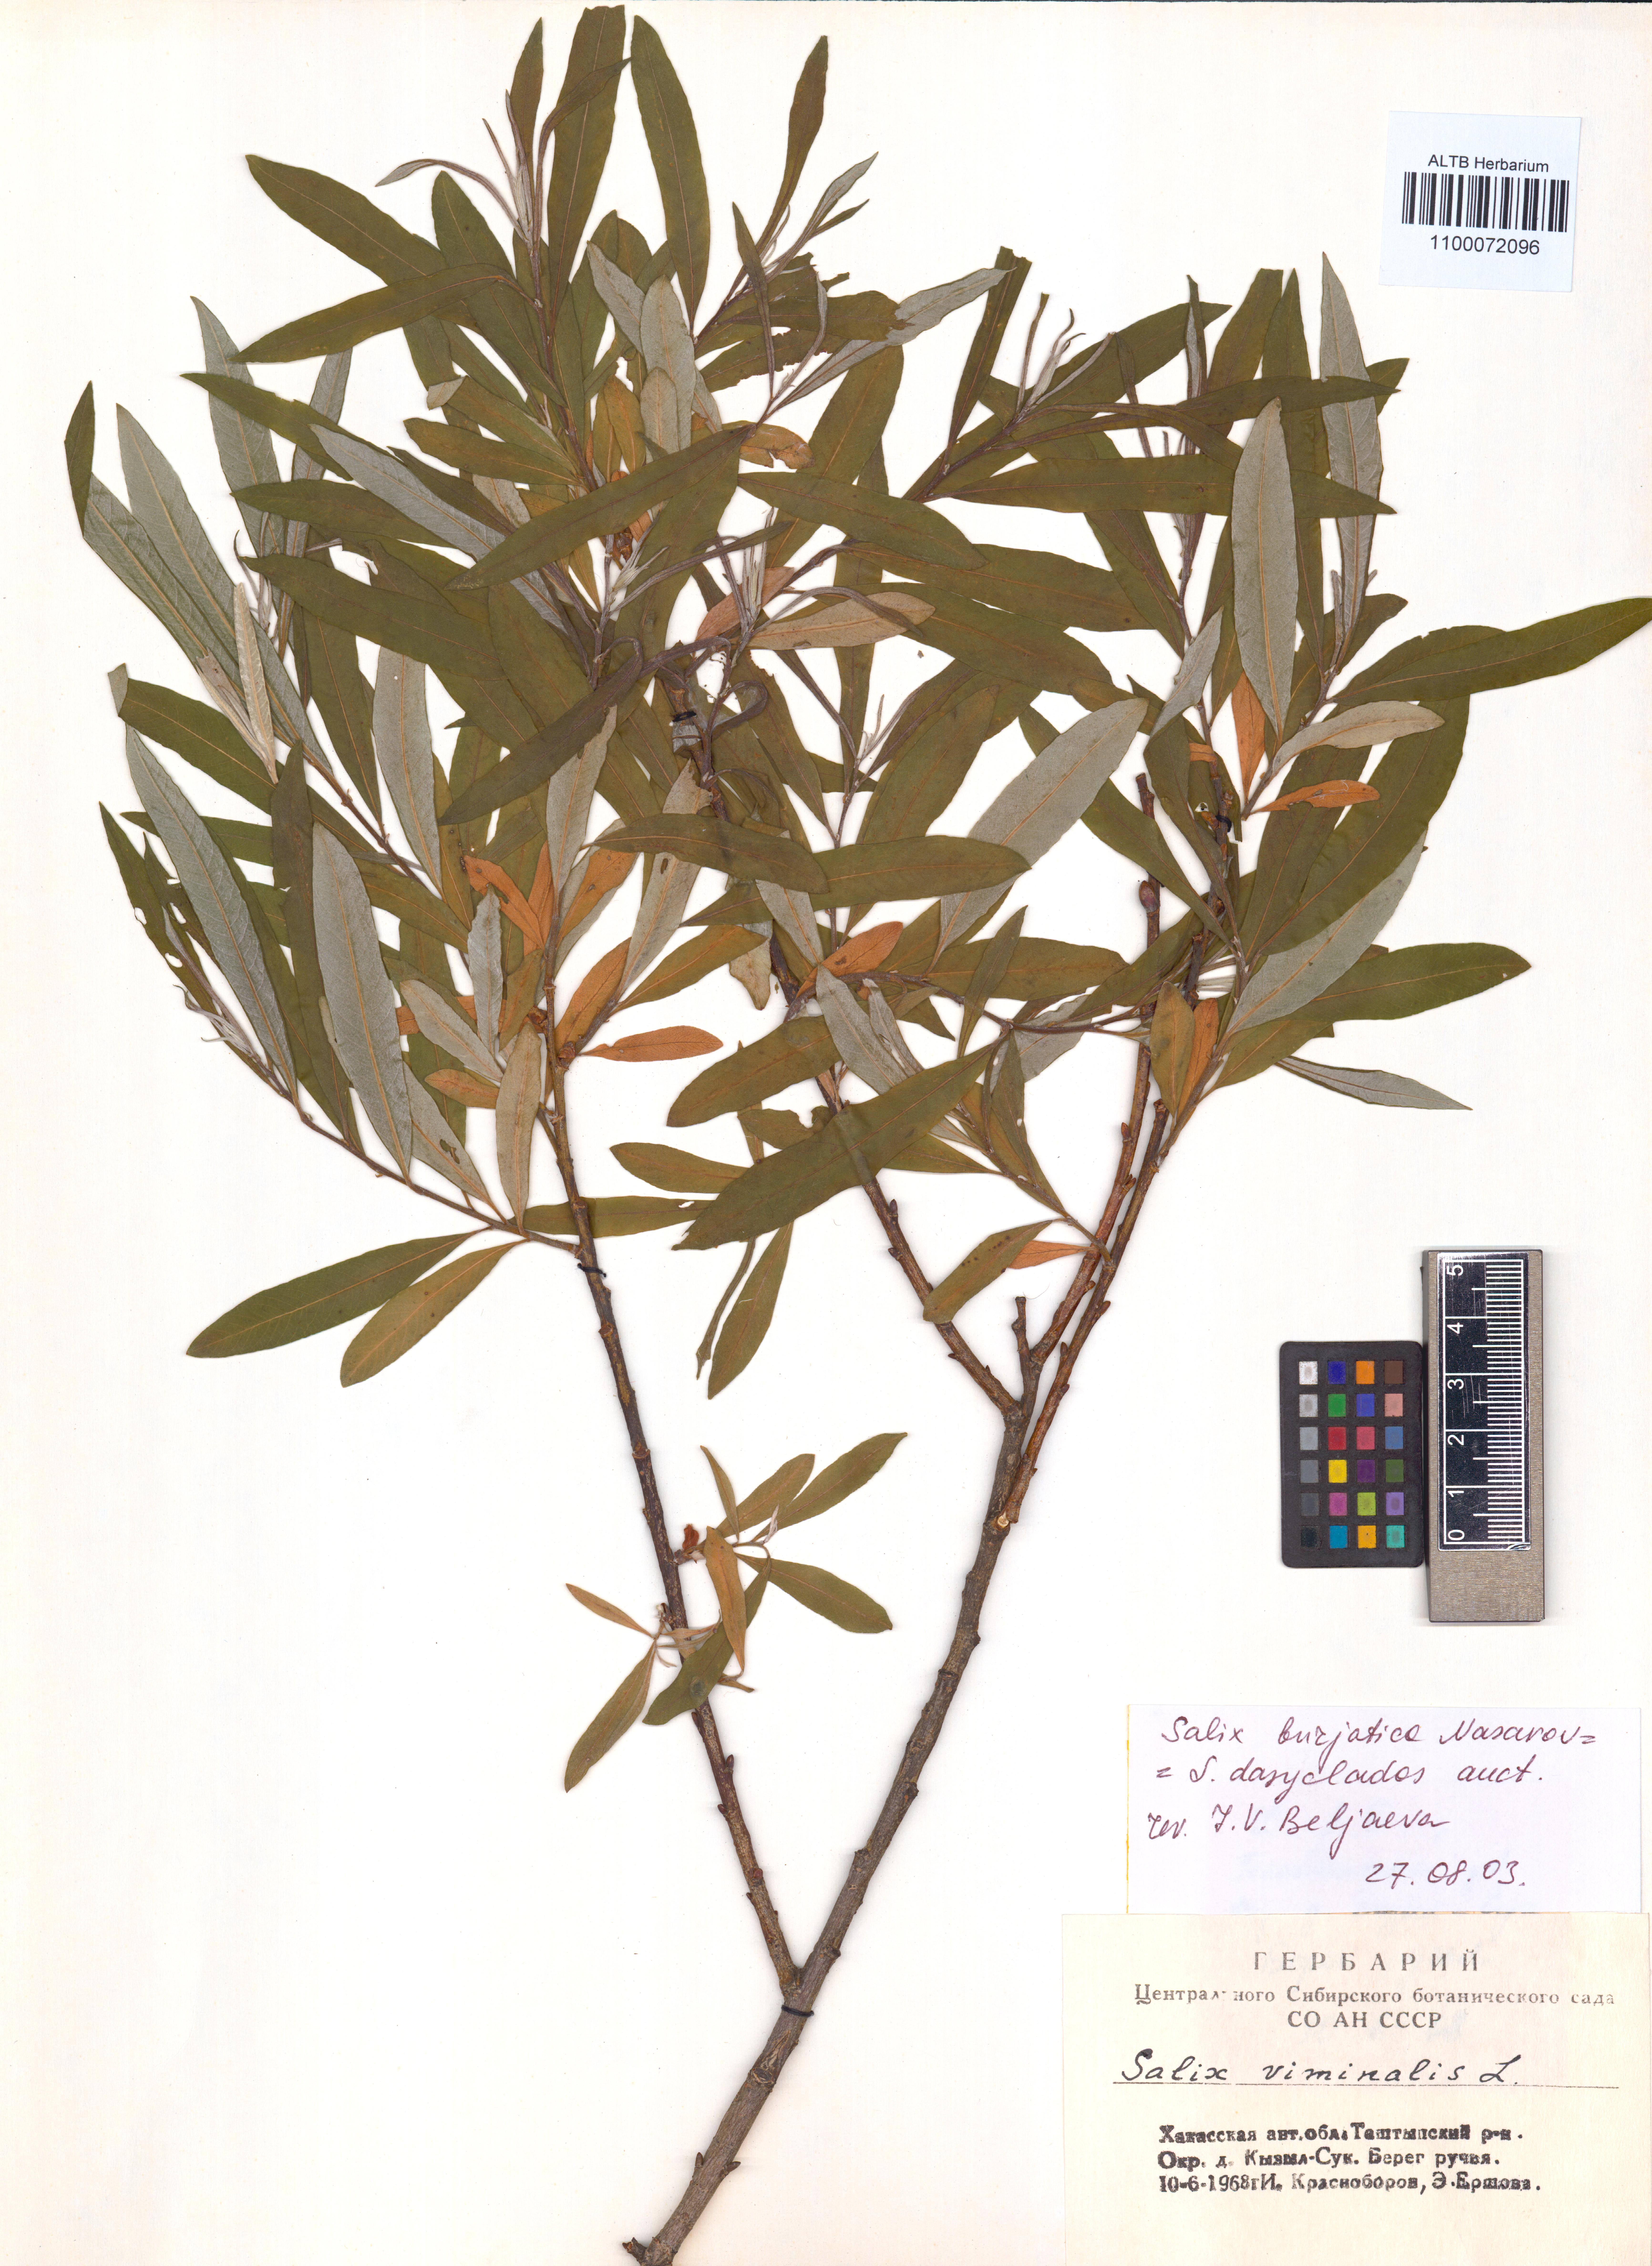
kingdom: Plantae
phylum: Tracheophyta
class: Magnoliopsida
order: Malpighiales
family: Salicaceae
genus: Salix
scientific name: Salix gmelinii
